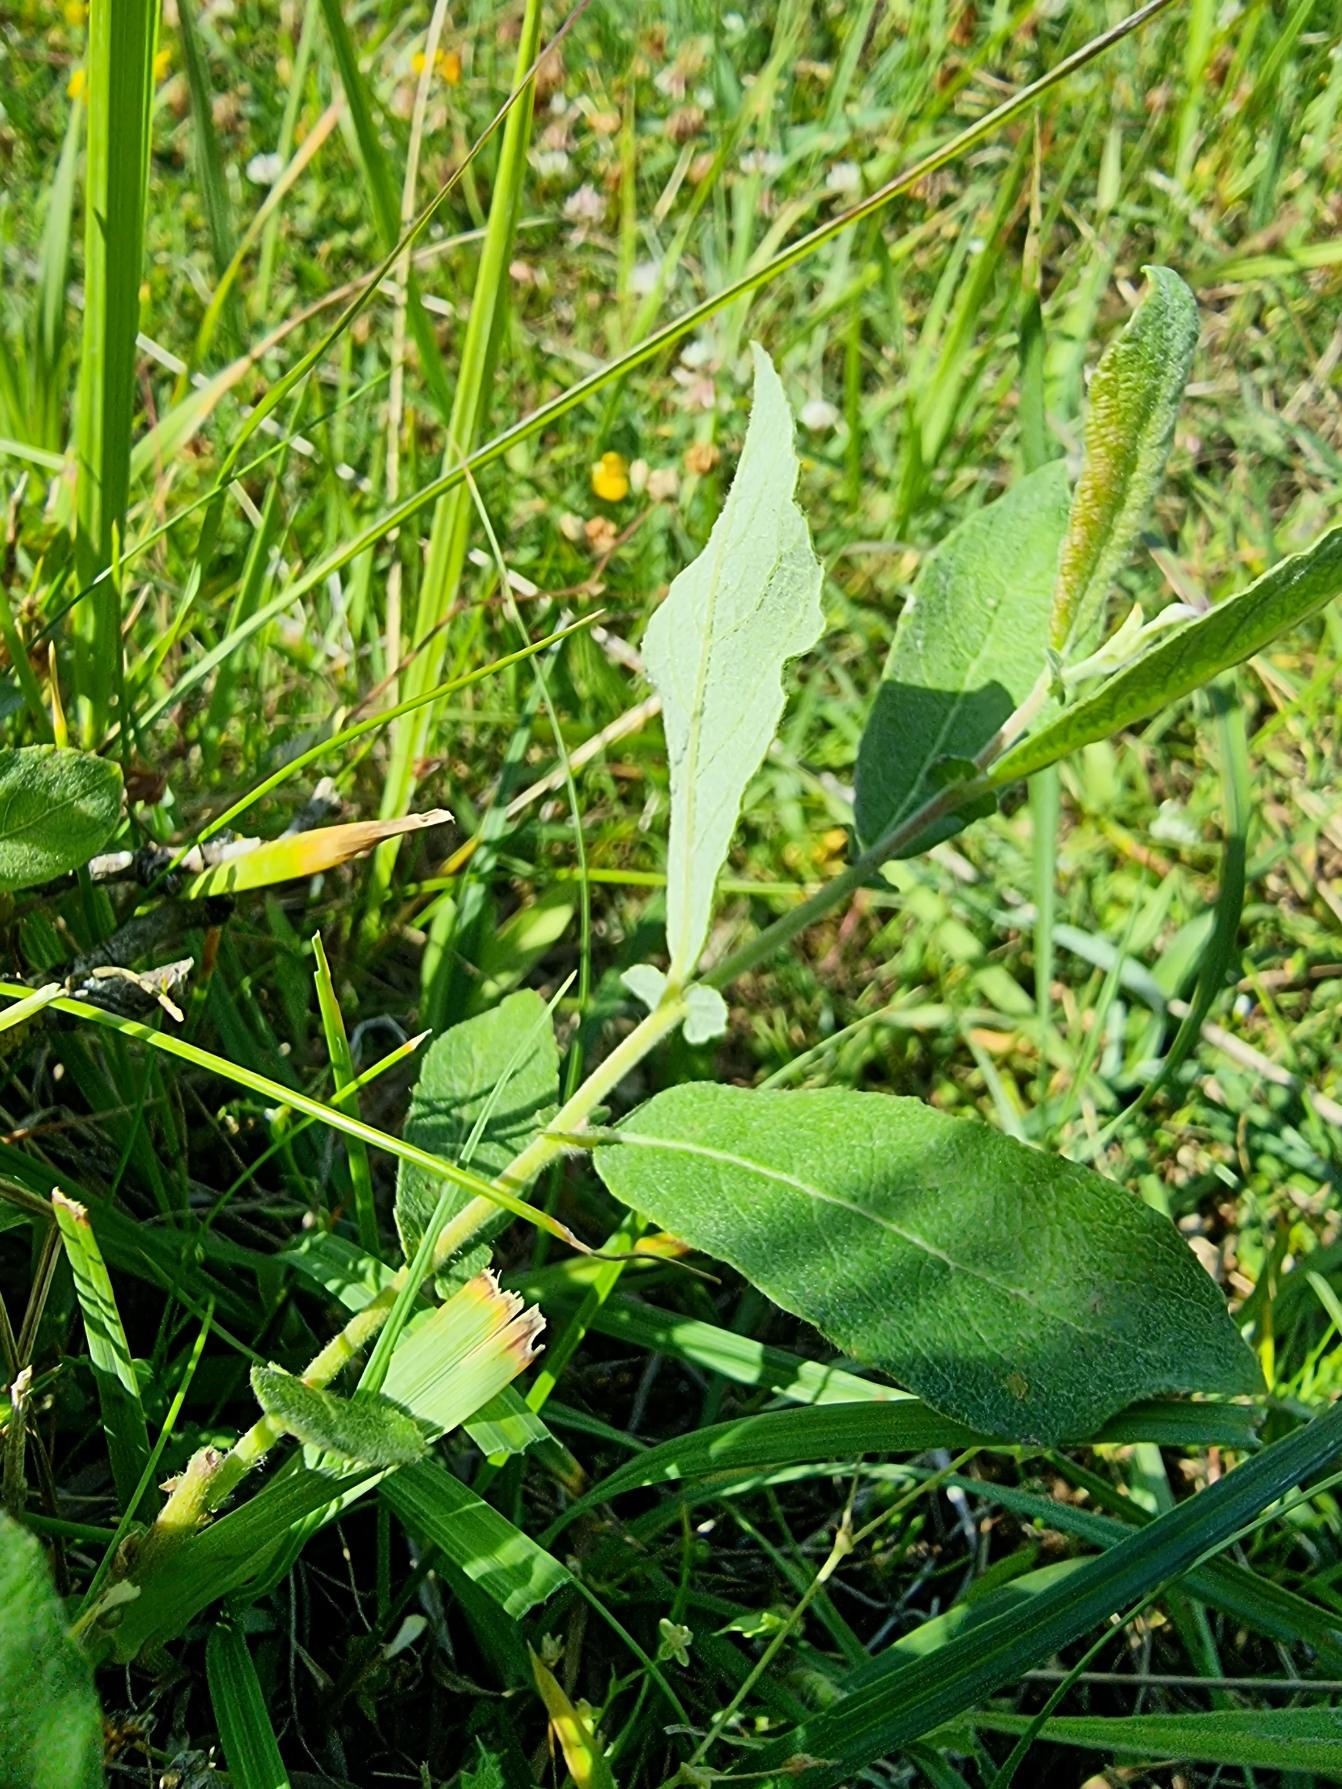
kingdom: Plantae
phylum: Tracheophyta
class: Magnoliopsida
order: Malpighiales
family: Salicaceae
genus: Salix
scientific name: Salix cinerea
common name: Grå-pil
